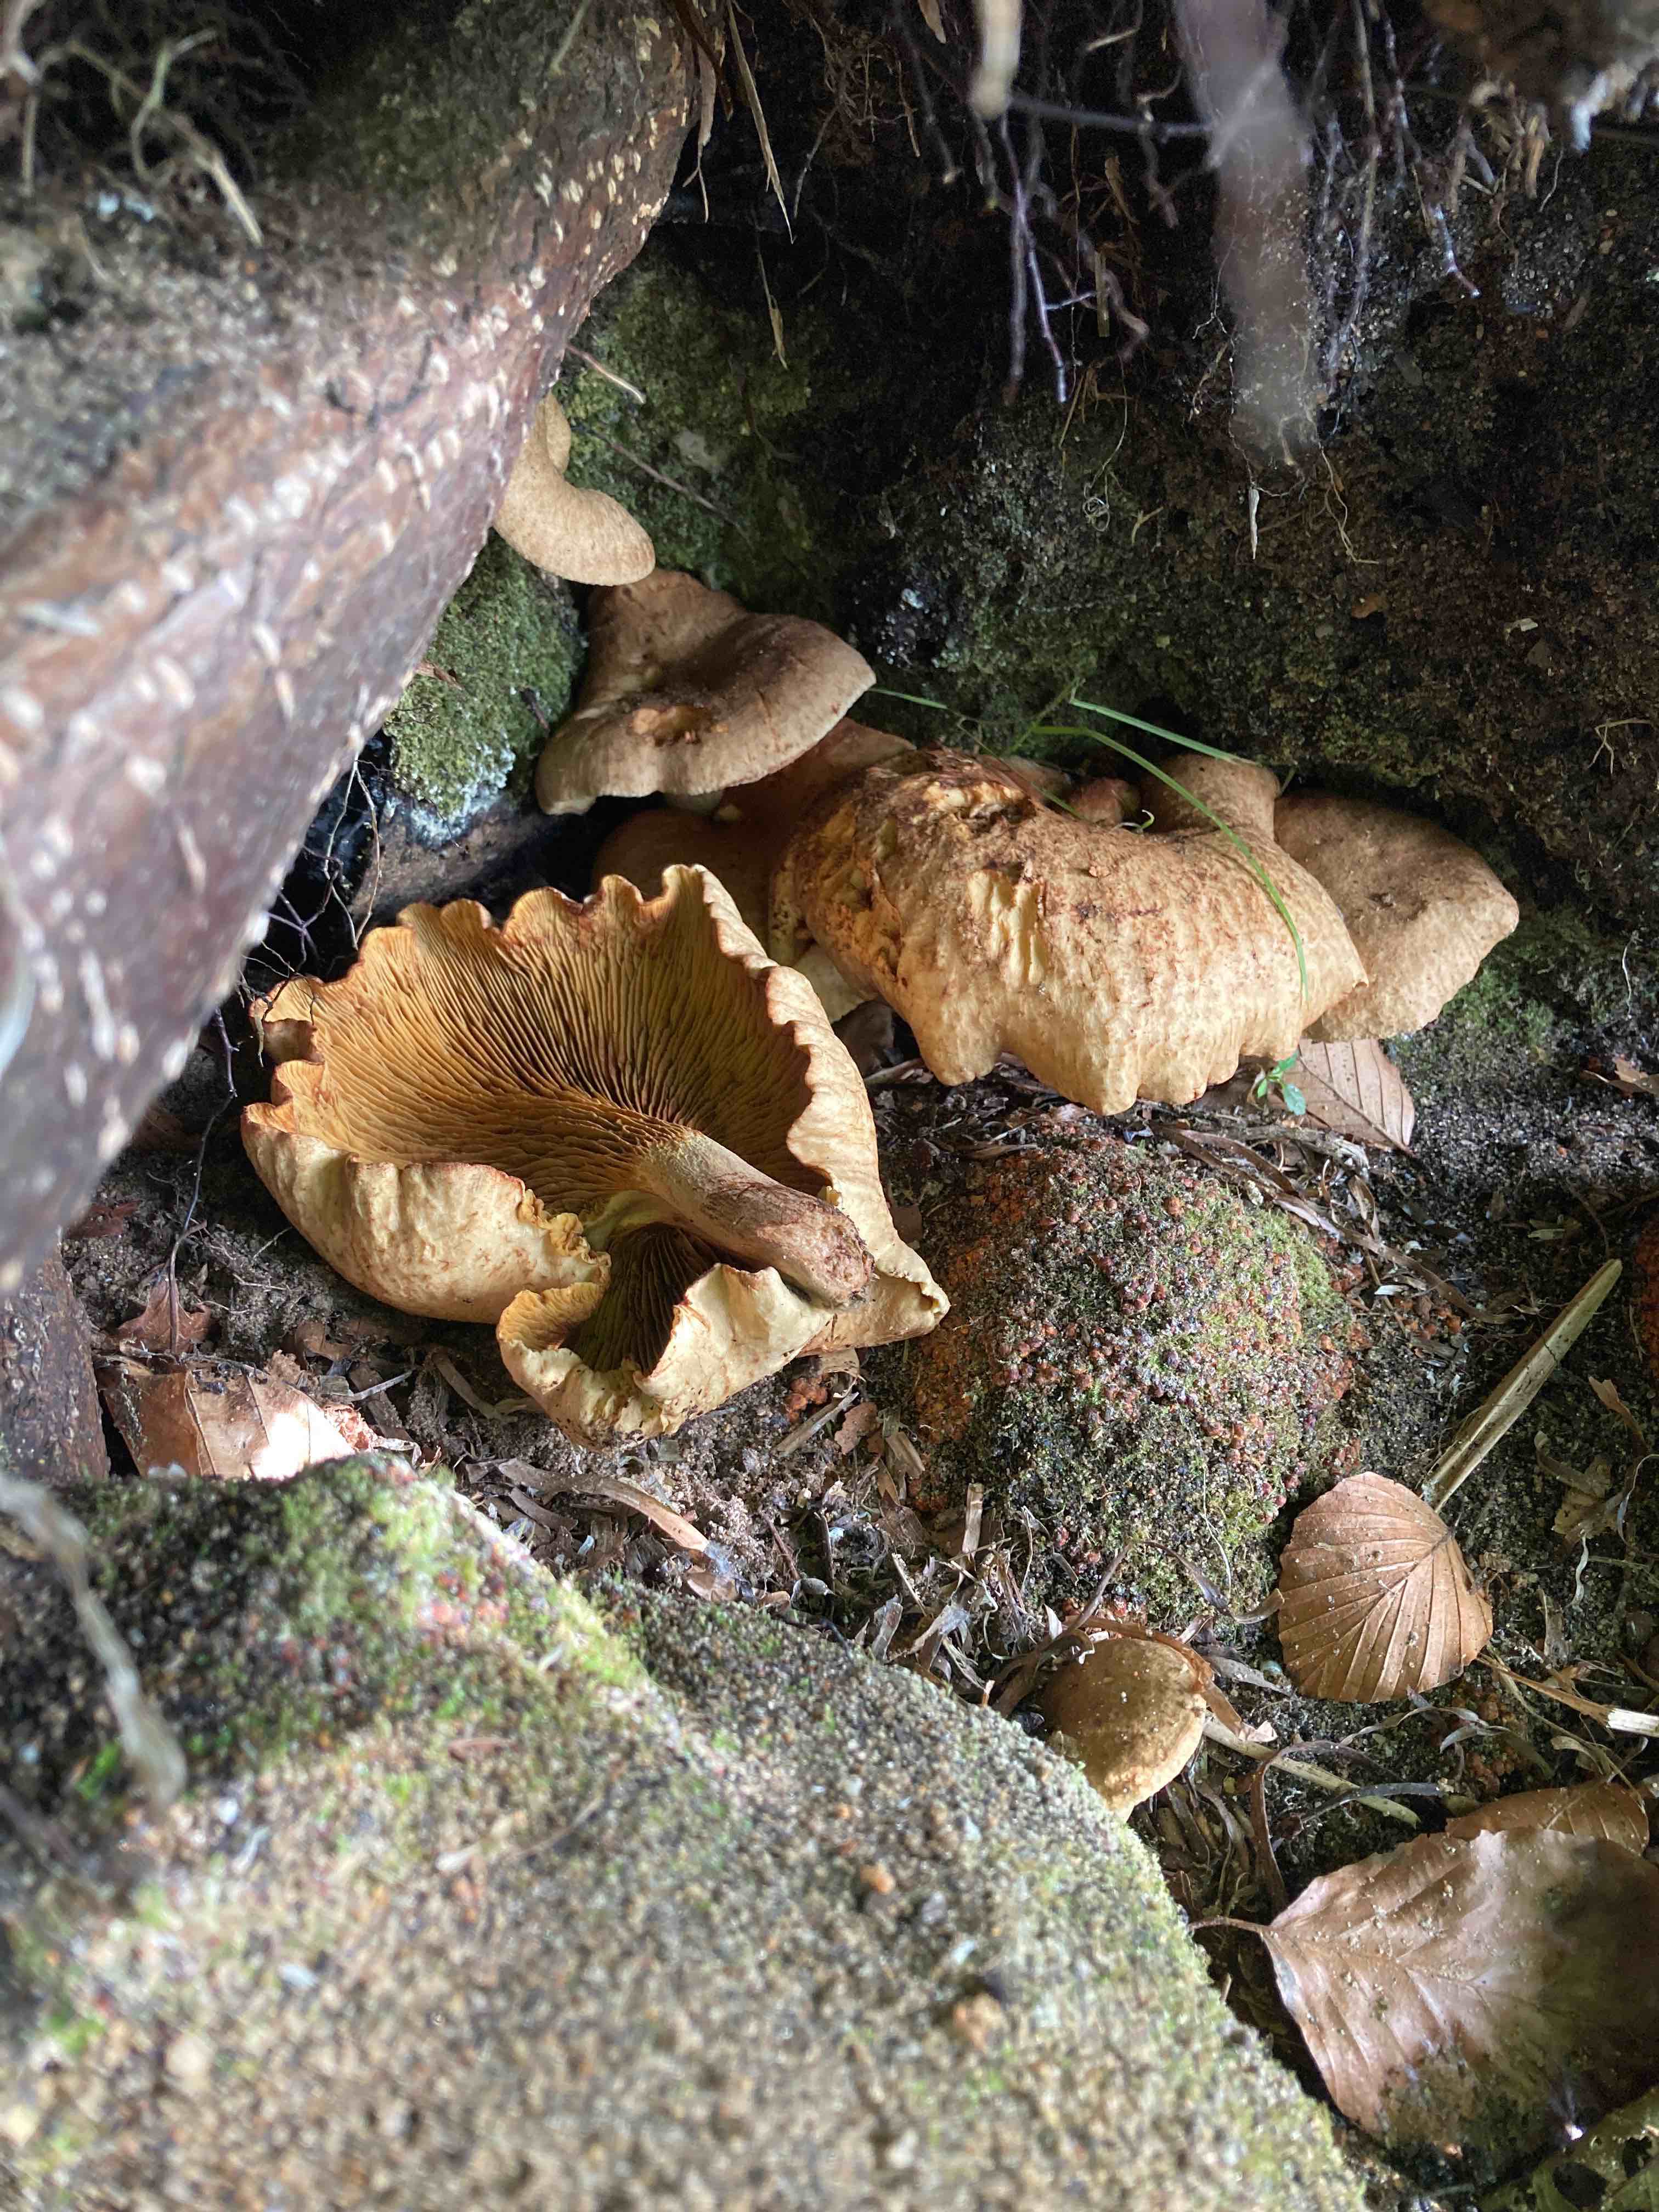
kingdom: Fungi
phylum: Basidiomycota
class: Agaricomycetes
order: Boletales
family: Paxillaceae
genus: Paxillus
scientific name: Paxillus olivellus
